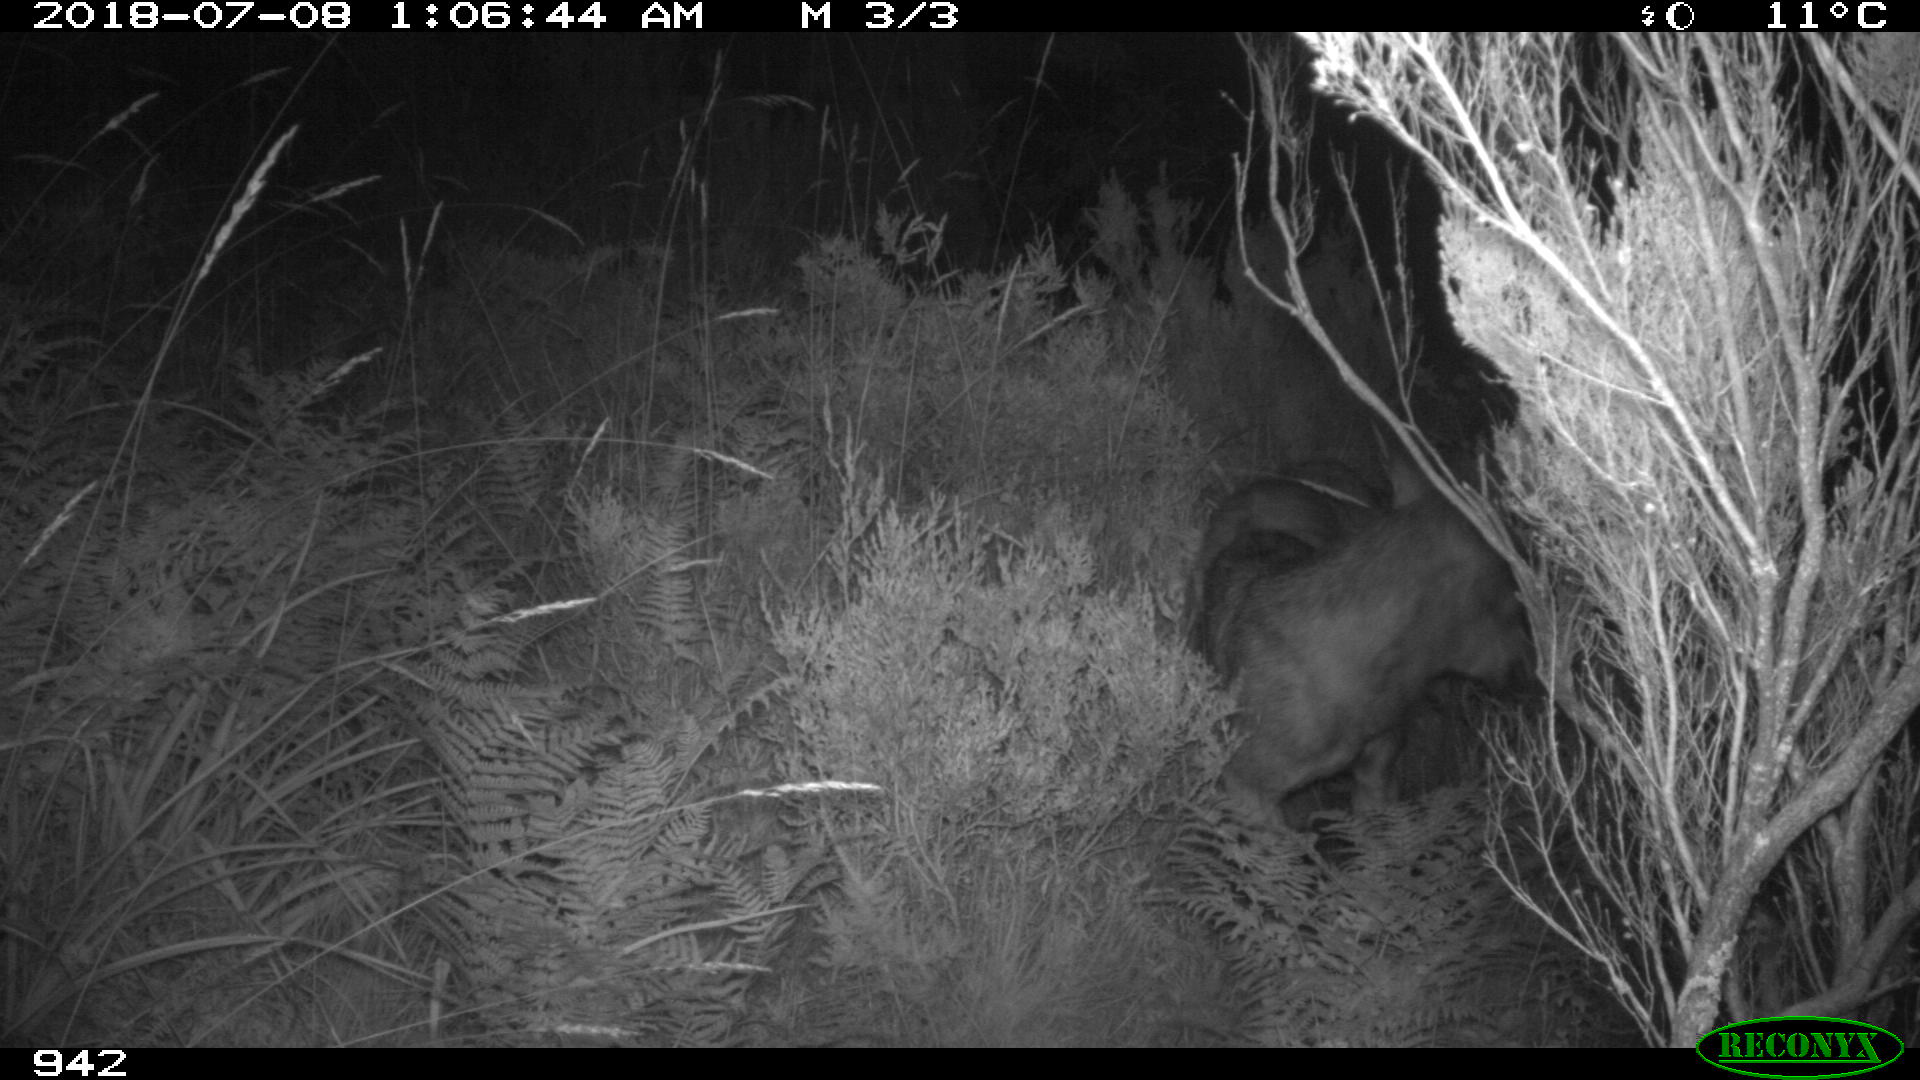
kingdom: Animalia
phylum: Chordata
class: Mammalia
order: Carnivora
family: Canidae
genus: Canis
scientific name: Canis lupus
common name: Gray wolf
